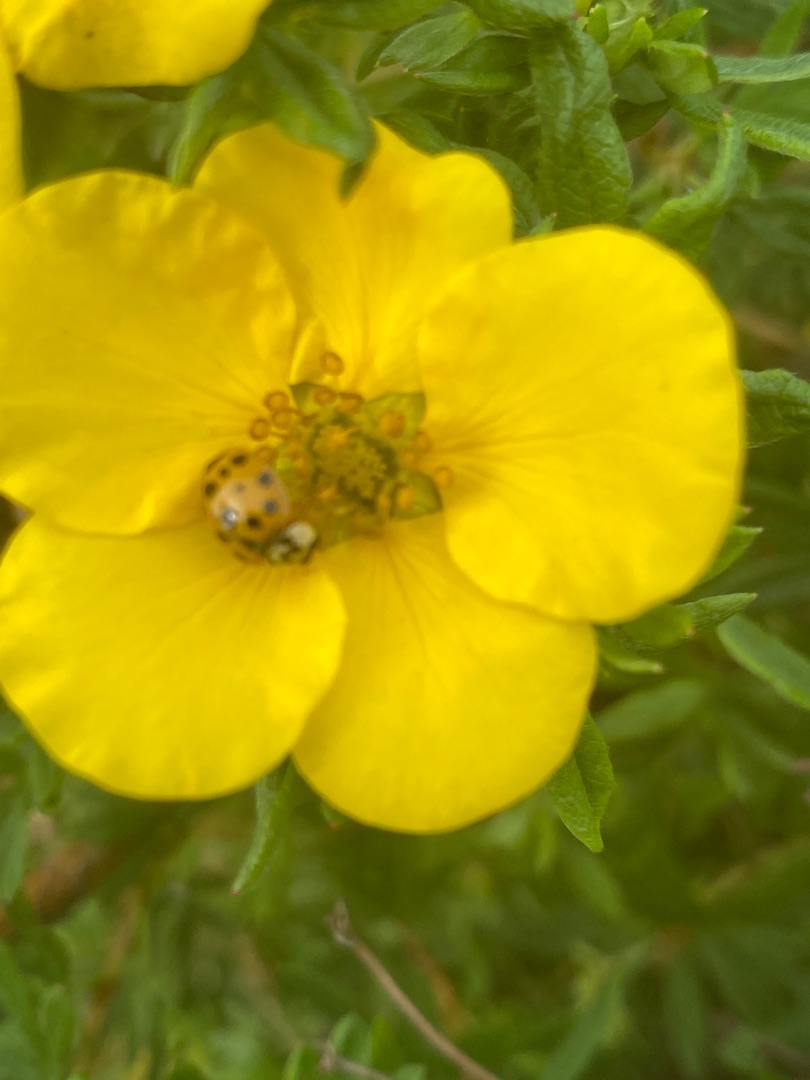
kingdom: Animalia
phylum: Arthropoda
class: Insecta
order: Coleoptera
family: Coccinellidae
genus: Harmonia
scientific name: Harmonia axyridis
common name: Harlekinmariehøne
